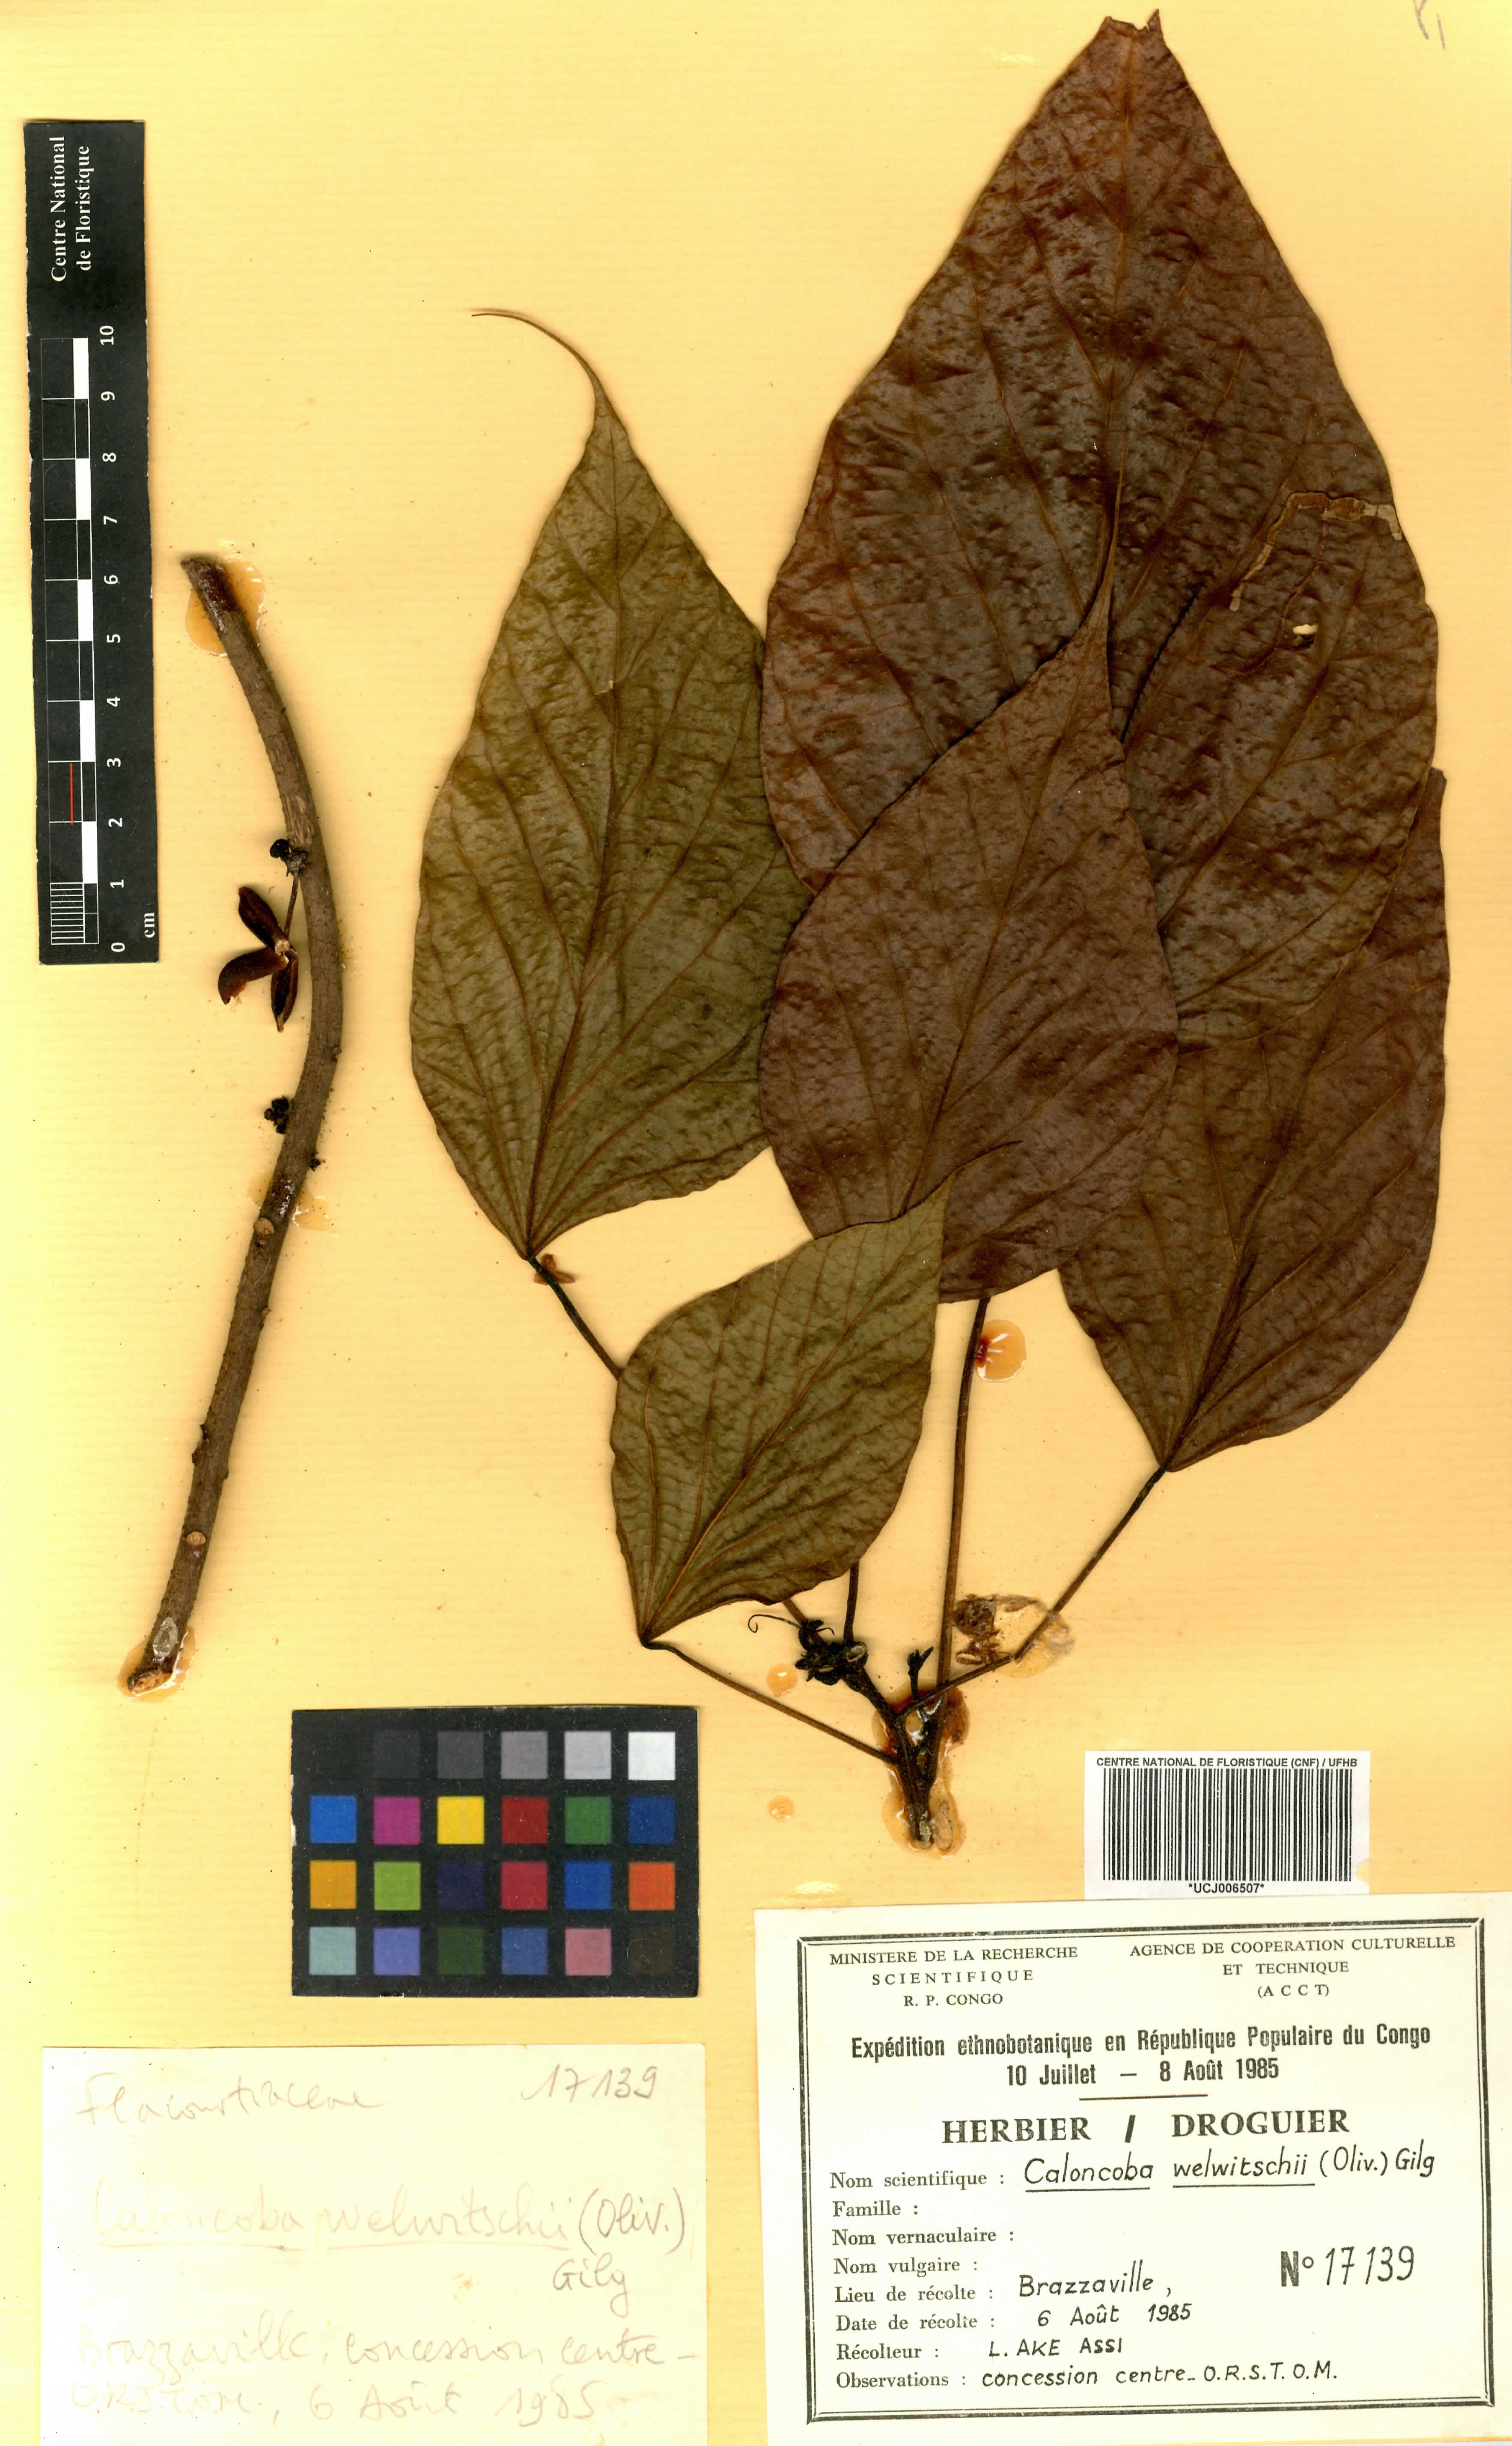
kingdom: Plantae
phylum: Tracheophyta
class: Magnoliopsida
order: Malpighiales
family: Achariaceae
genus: Caloncoba
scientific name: Caloncoba welwitschii
